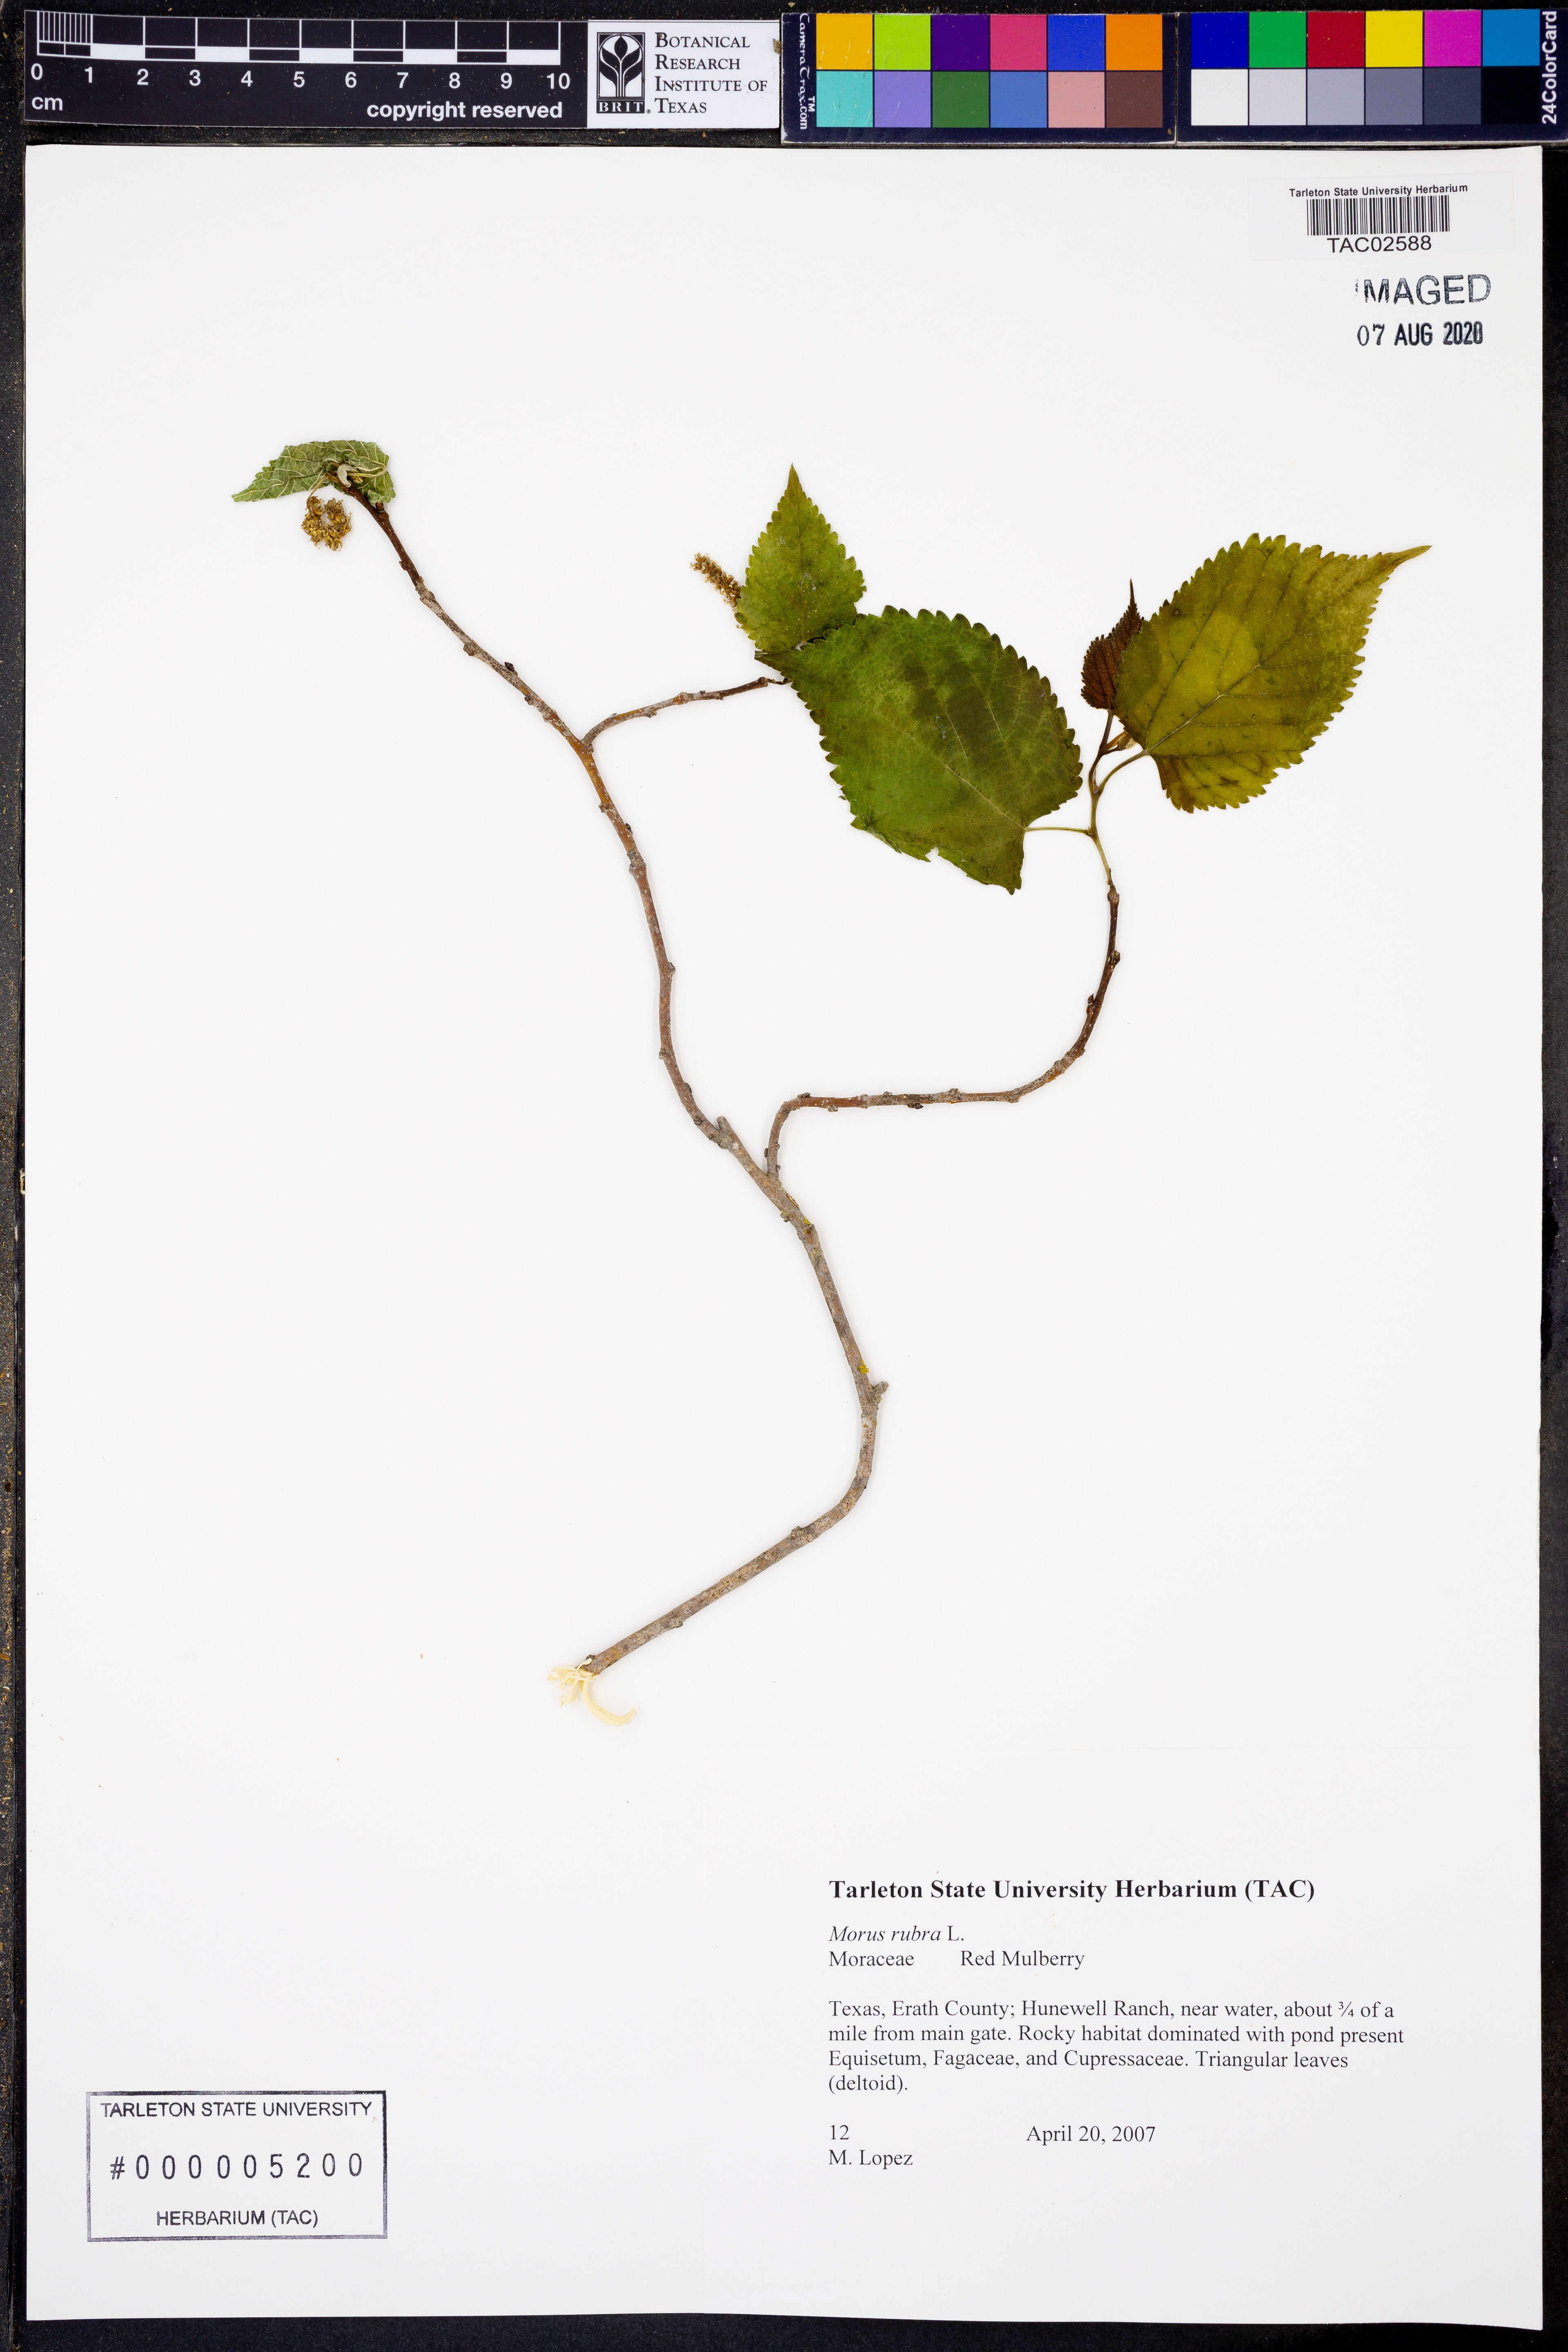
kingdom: Plantae
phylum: Tracheophyta
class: Magnoliopsida
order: Rosales
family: Moraceae
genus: Morus
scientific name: Morus rubra
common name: Red mulberry
